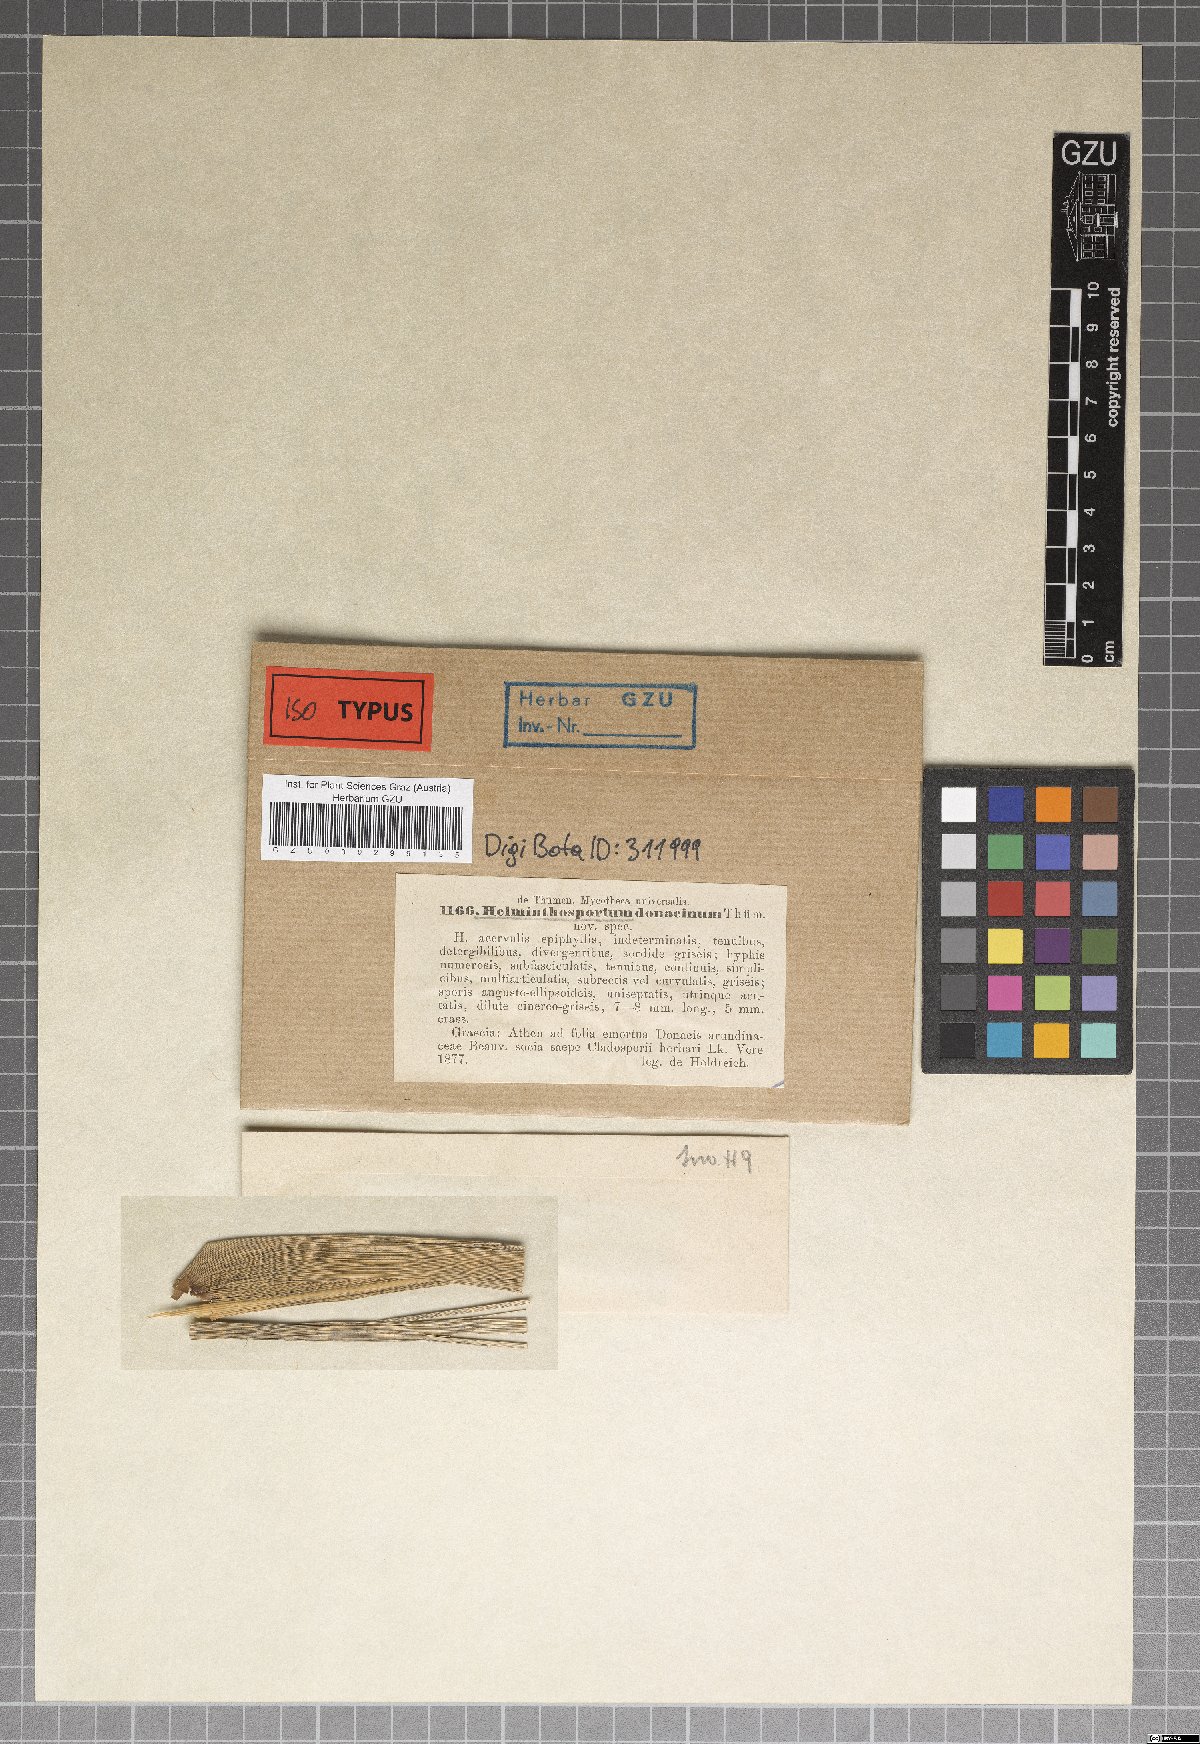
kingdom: Fungi
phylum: Ascomycota
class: Dothideomycetes
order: Pleosporales
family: Massarinaceae
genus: Helminthosporium
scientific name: Helminthosporium
